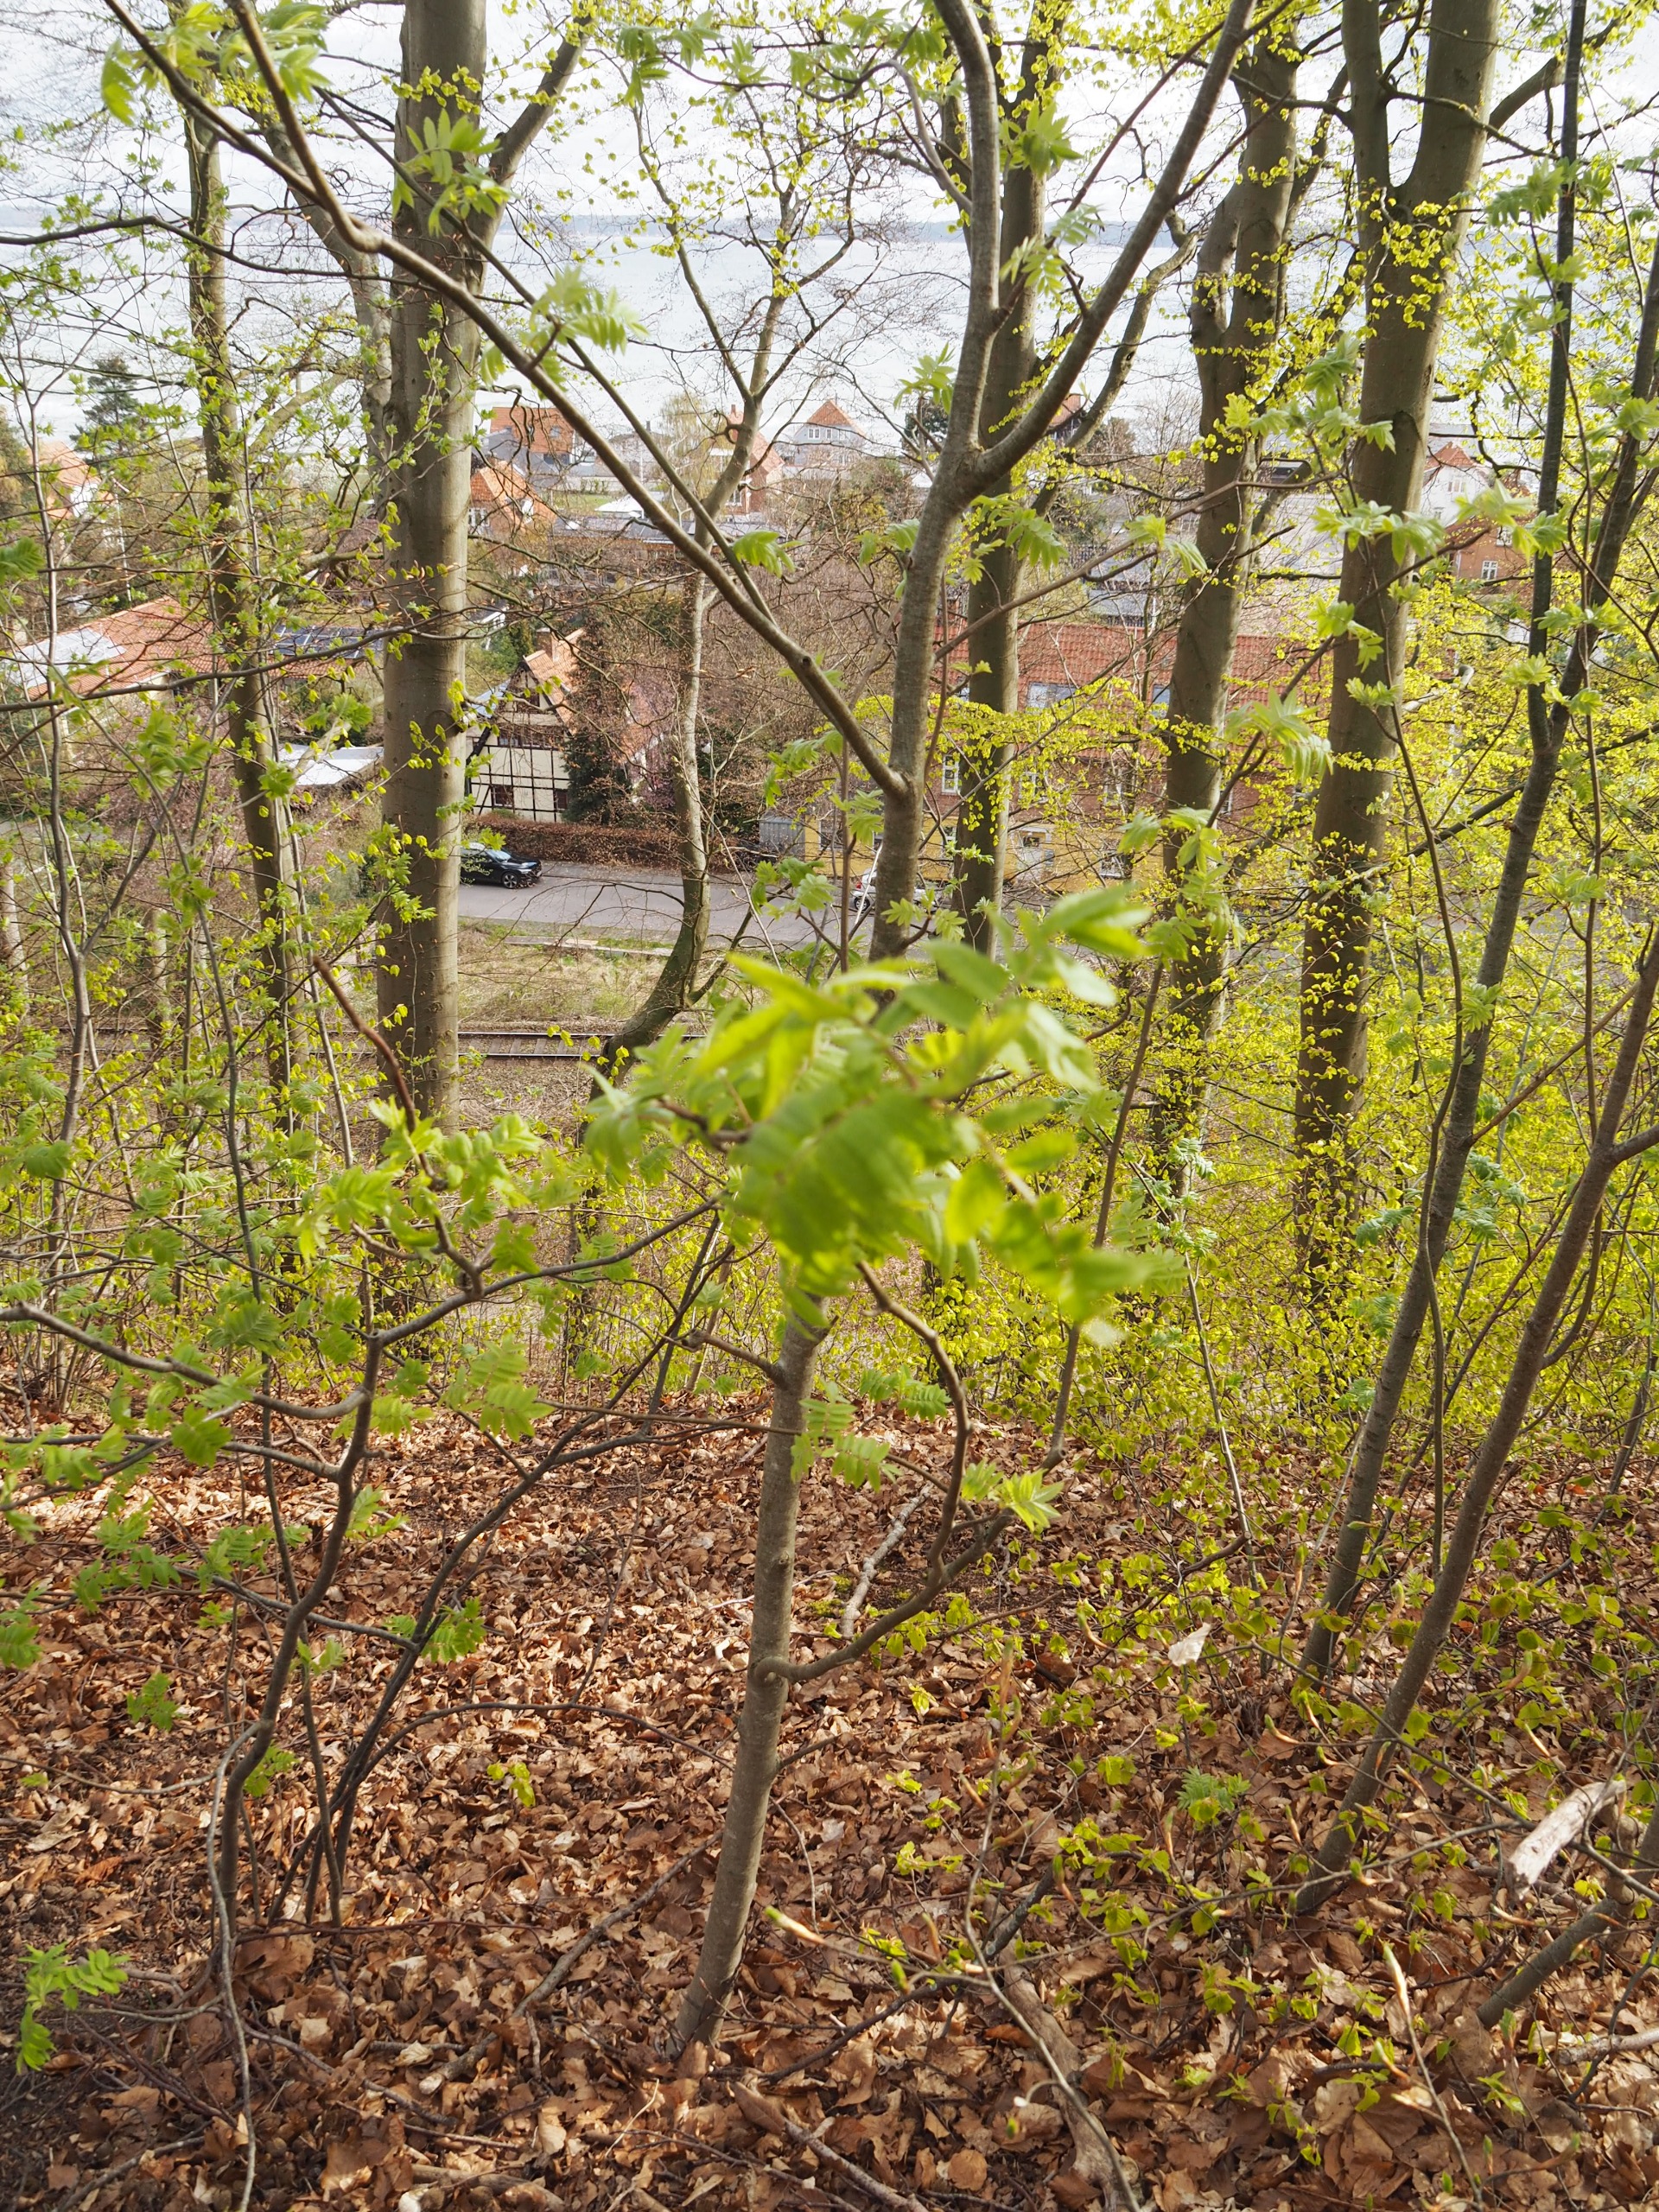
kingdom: Plantae
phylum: Tracheophyta
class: Magnoliopsida
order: Rosales
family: Rosaceae
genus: Sorbus
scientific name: Sorbus aucuparia
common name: Almindelig røn
